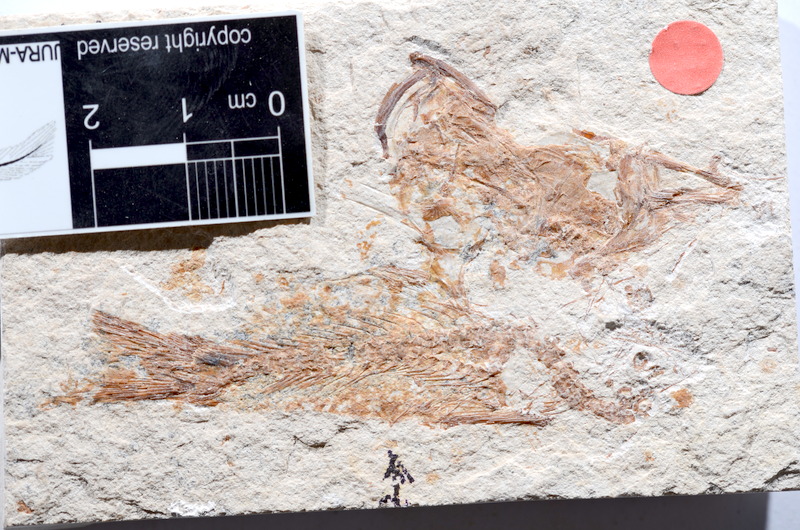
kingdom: Animalia
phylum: Chordata
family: Ascalaboidae
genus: Tharsis
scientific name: Tharsis dubius
